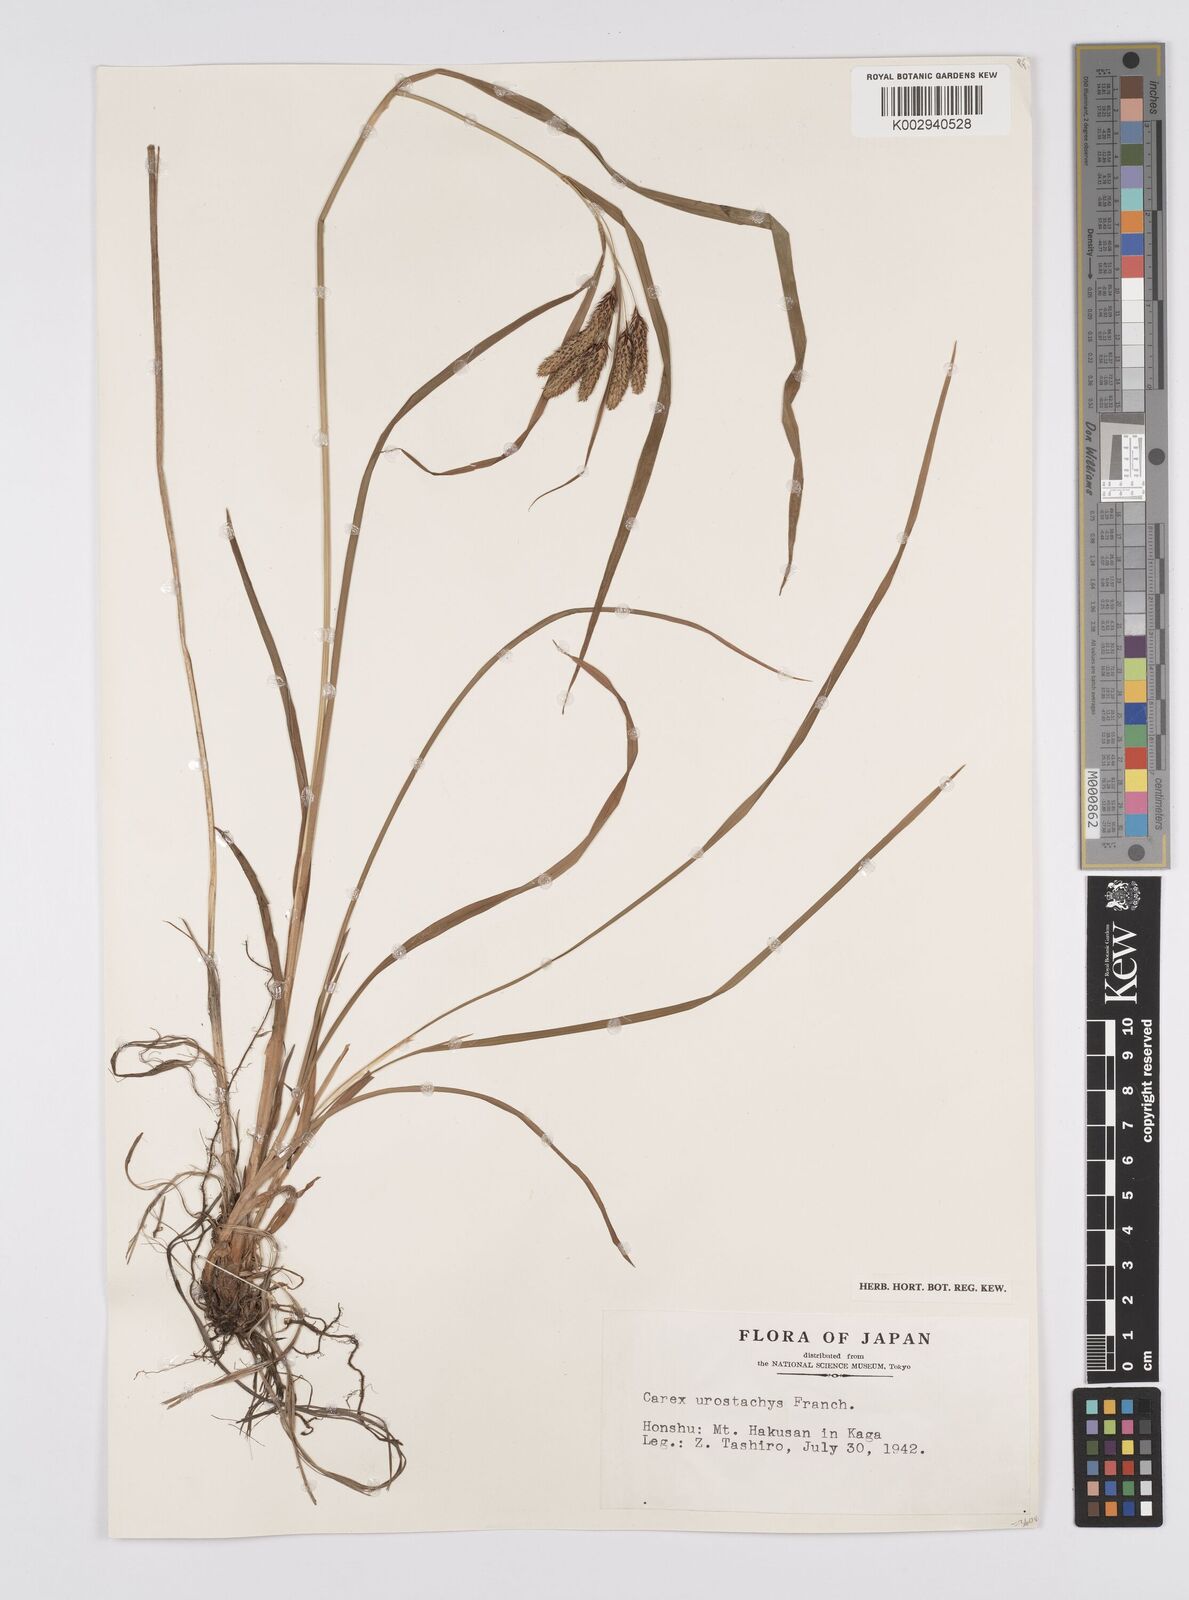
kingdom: Plantae
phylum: Tracheophyta
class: Liliopsida
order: Poales
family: Cyperaceae
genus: Carex
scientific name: Carex mertensii
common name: Mertens' sedge
